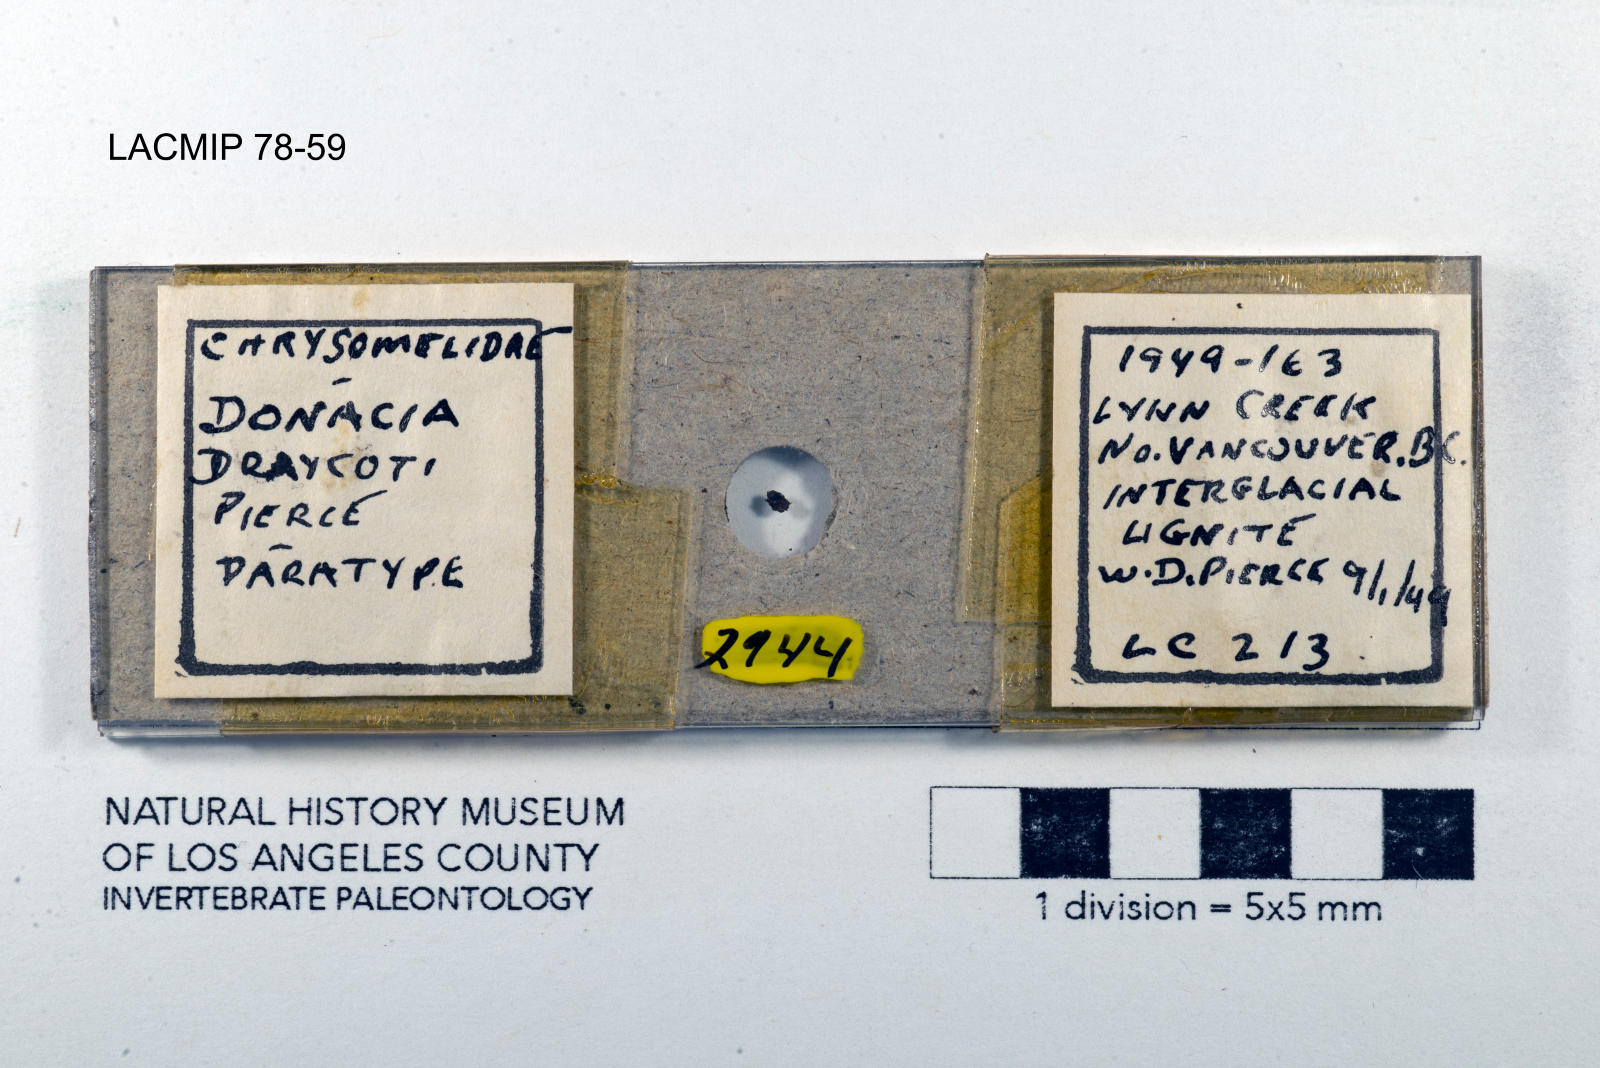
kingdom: Animalia
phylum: Arthropoda
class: Insecta
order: Coleoptera
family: Chrysomelidae
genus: Donacia
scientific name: Donacia draycoti
